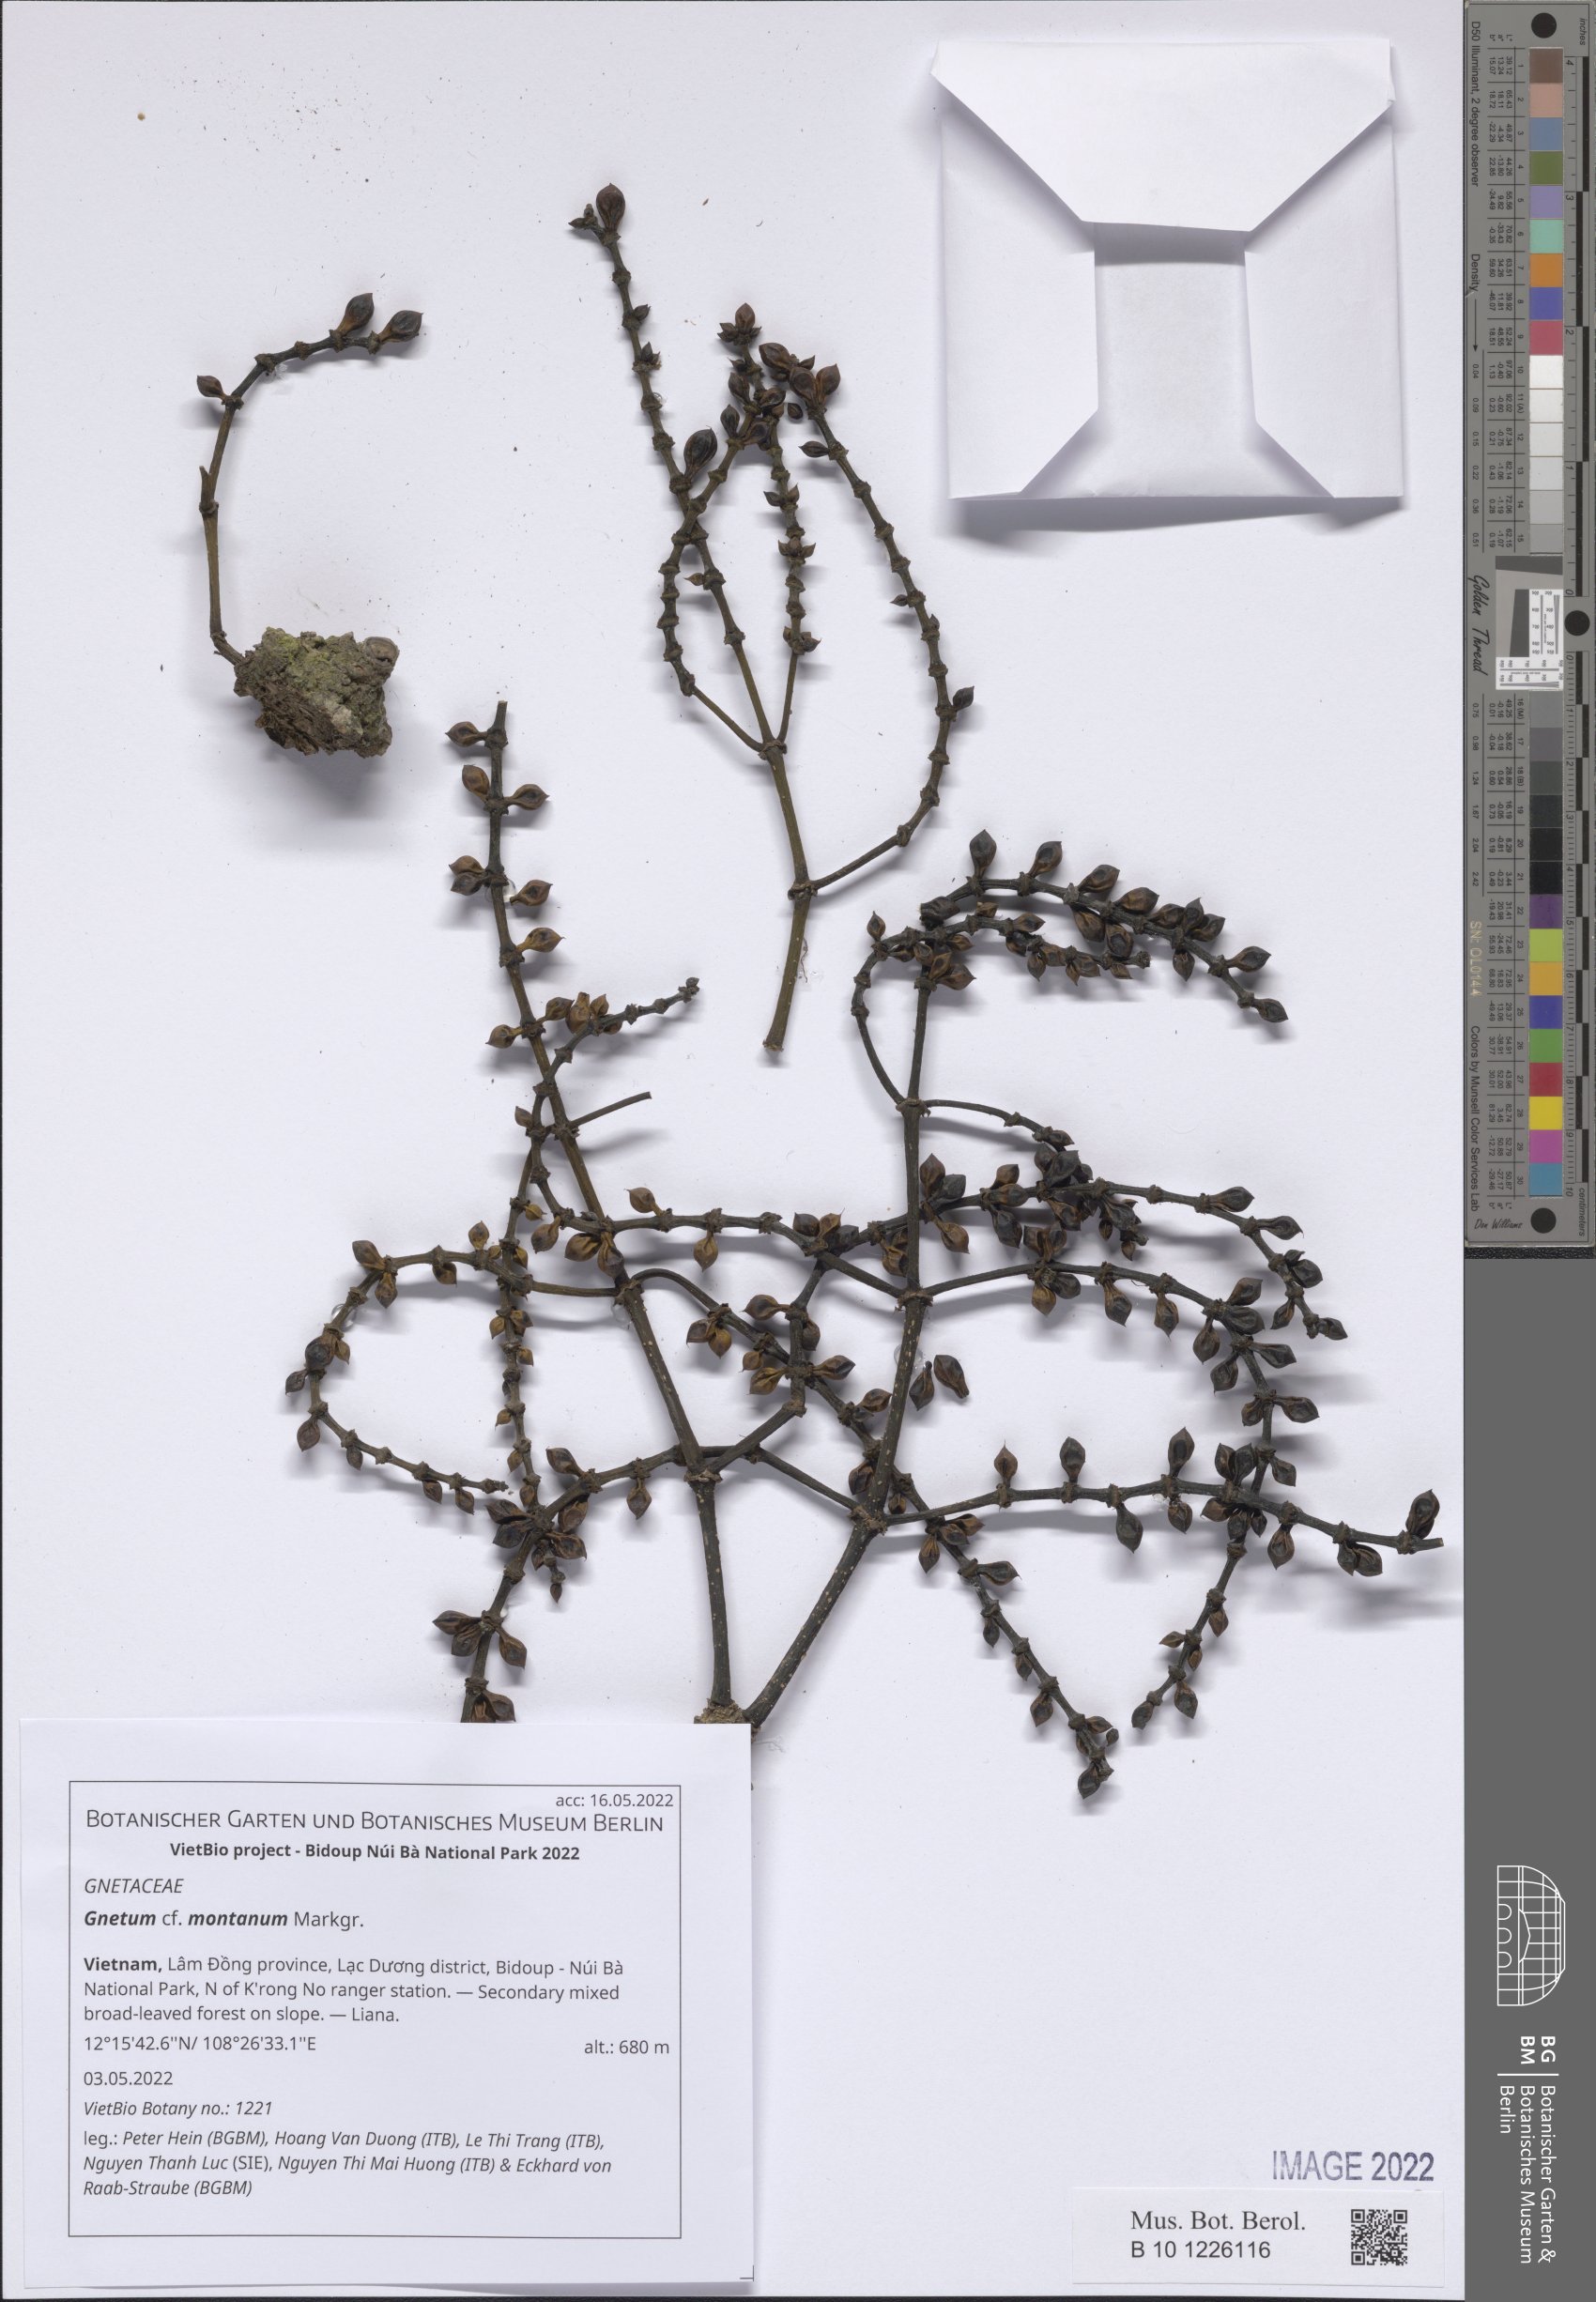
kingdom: Plantae
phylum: Tracheophyta
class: Gnetopsida
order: Gnetales
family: Gnetaceae
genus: Gnetum
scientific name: Gnetum montanum
